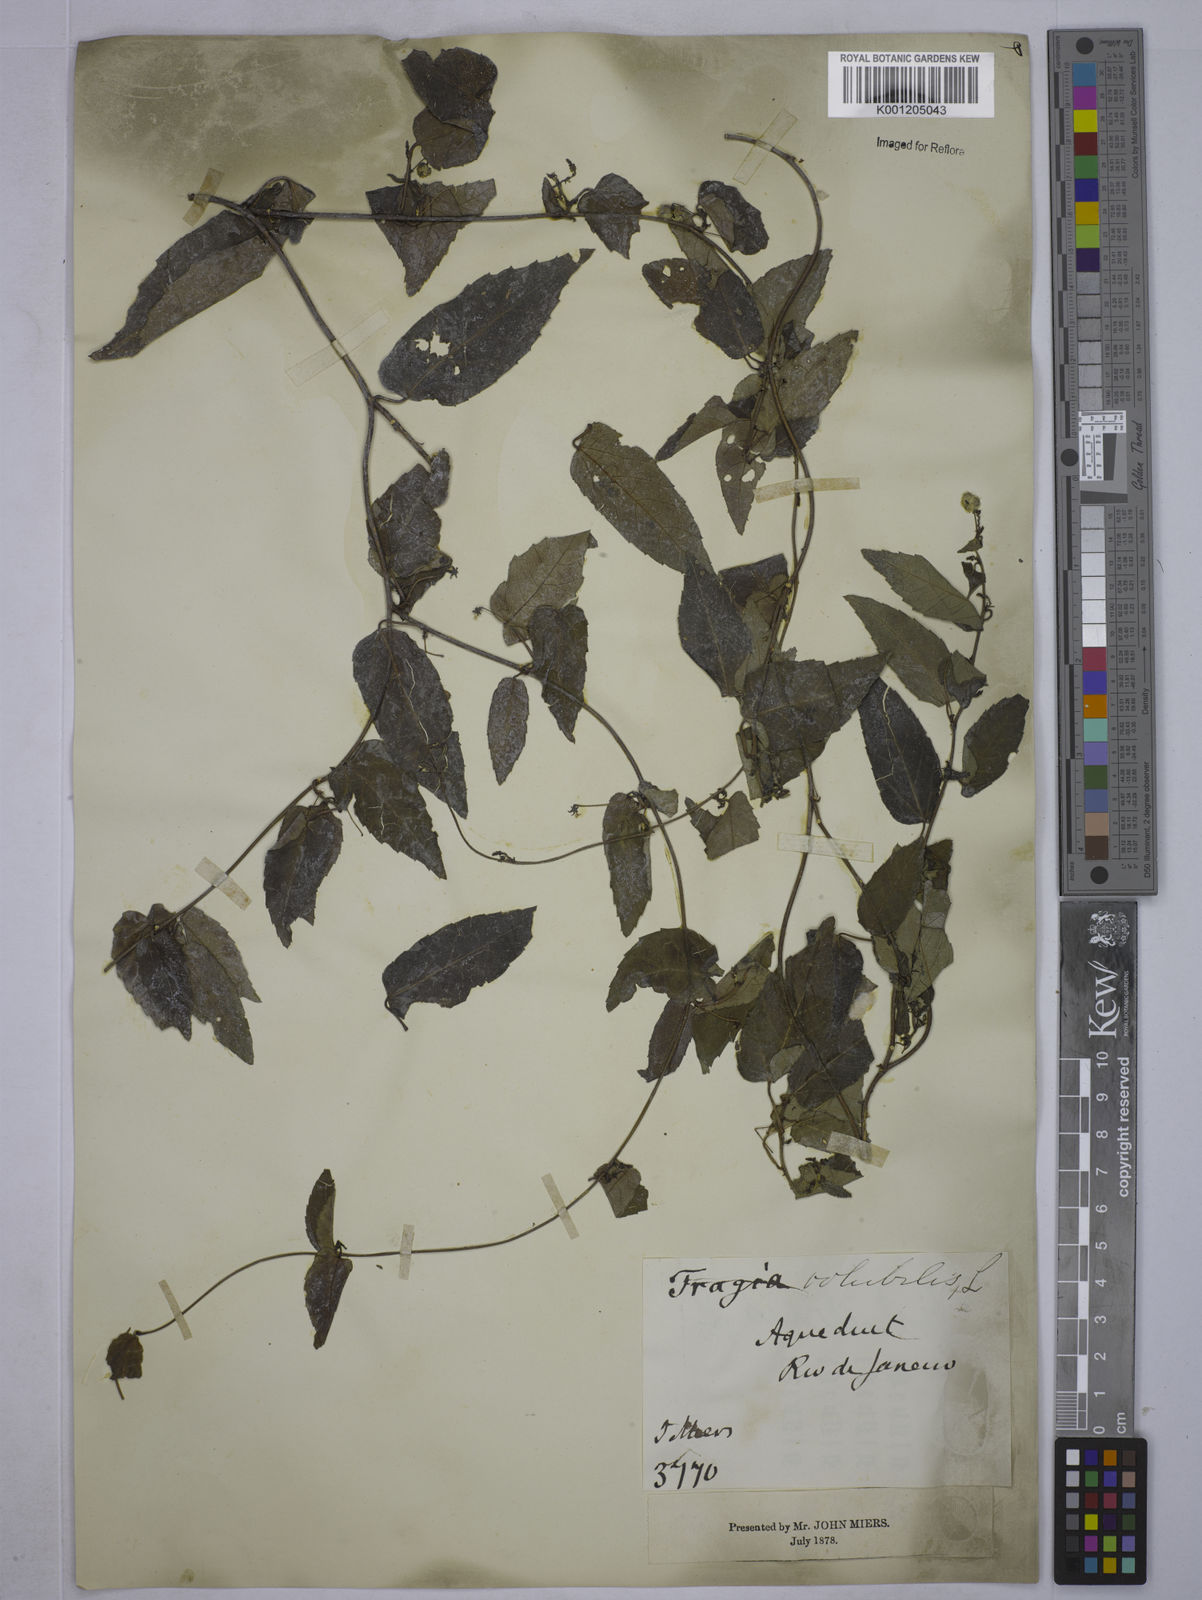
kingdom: Plantae
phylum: Tracheophyta
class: Magnoliopsida
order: Malpighiales
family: Euphorbiaceae
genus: Tragia
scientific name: Tragia volubilis
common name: Twining cow-itch
